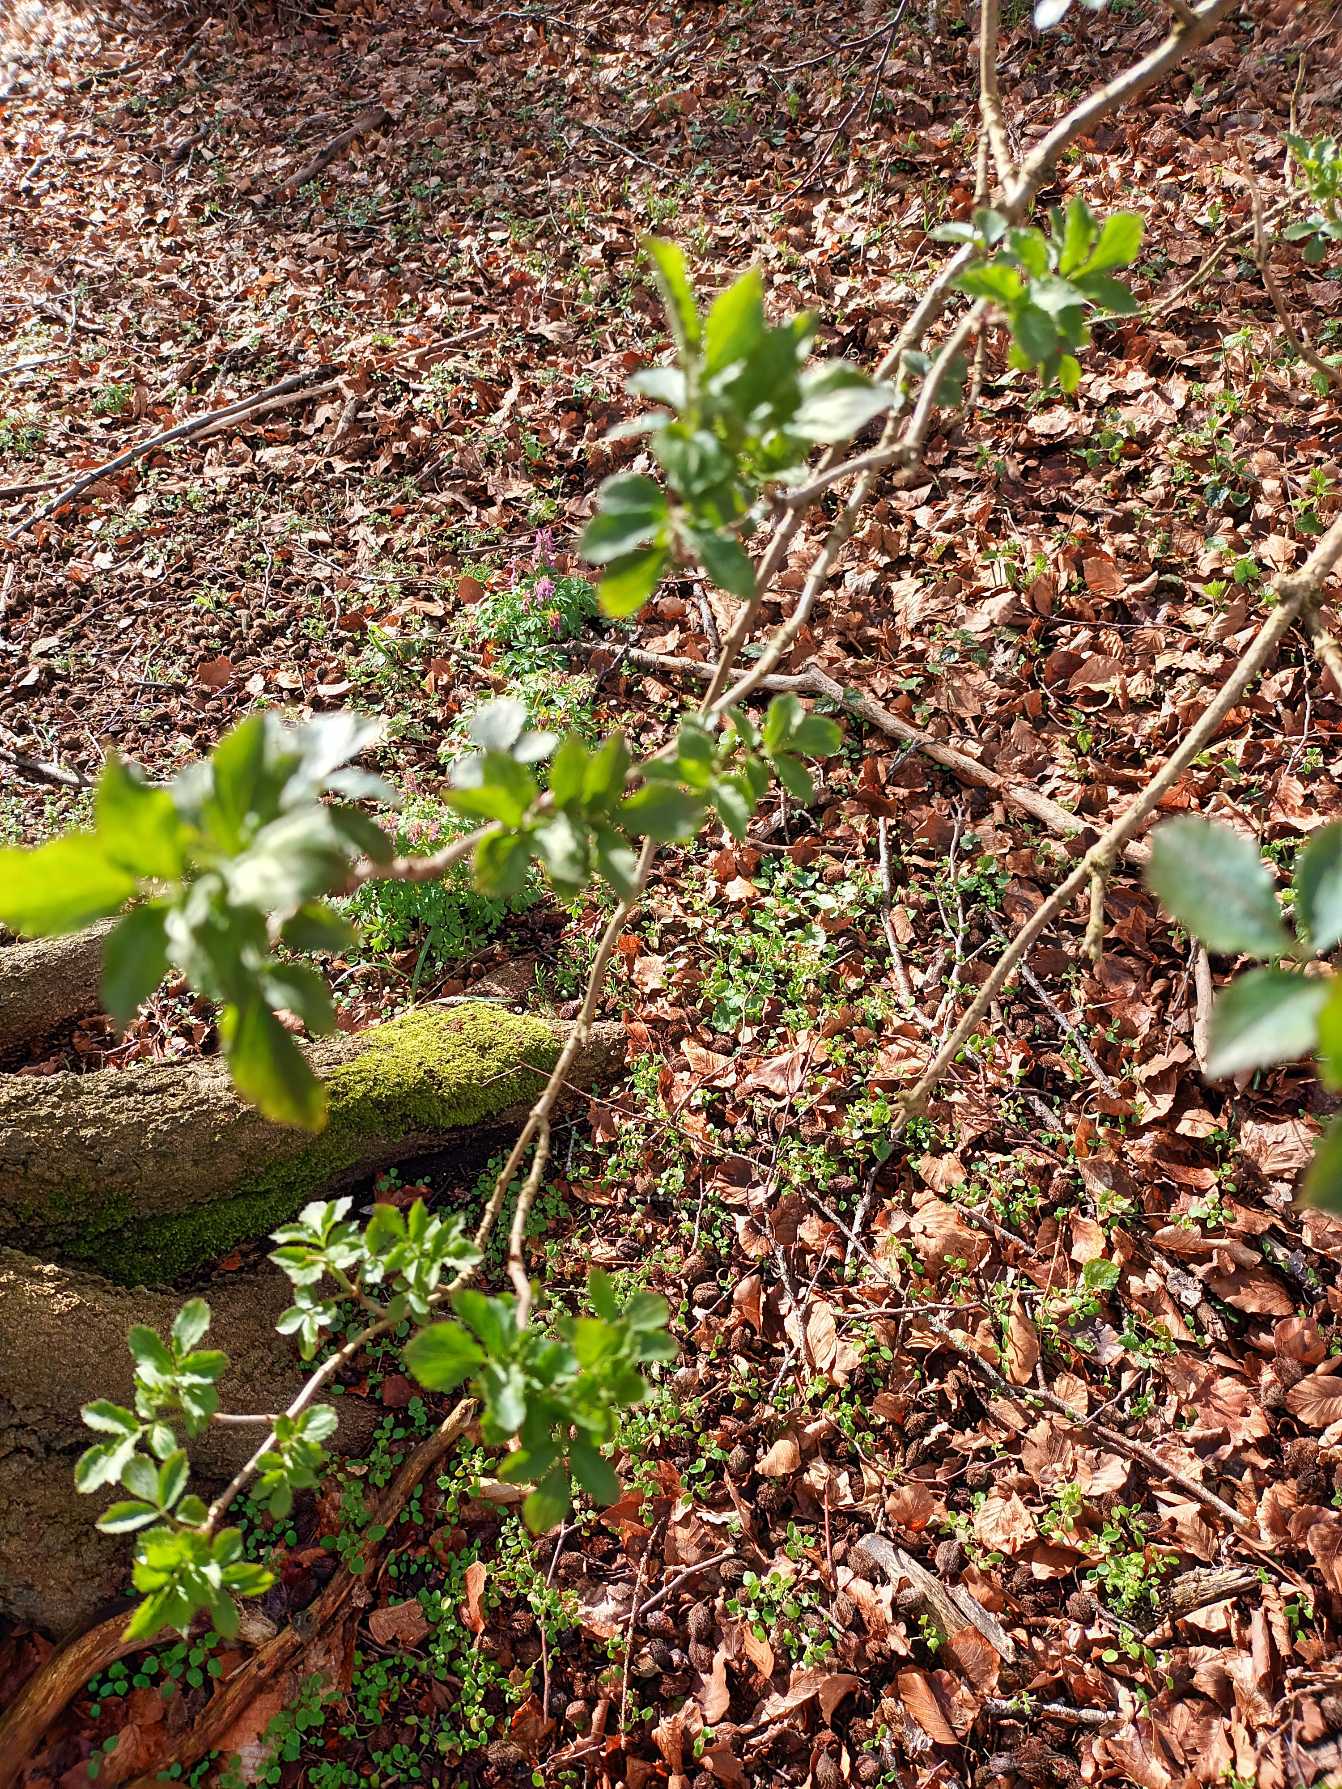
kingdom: Plantae
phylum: Tracheophyta
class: Magnoliopsida
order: Dipsacales
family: Viburnaceae
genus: Sambucus
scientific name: Sambucus nigra
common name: Almindelig hyld
